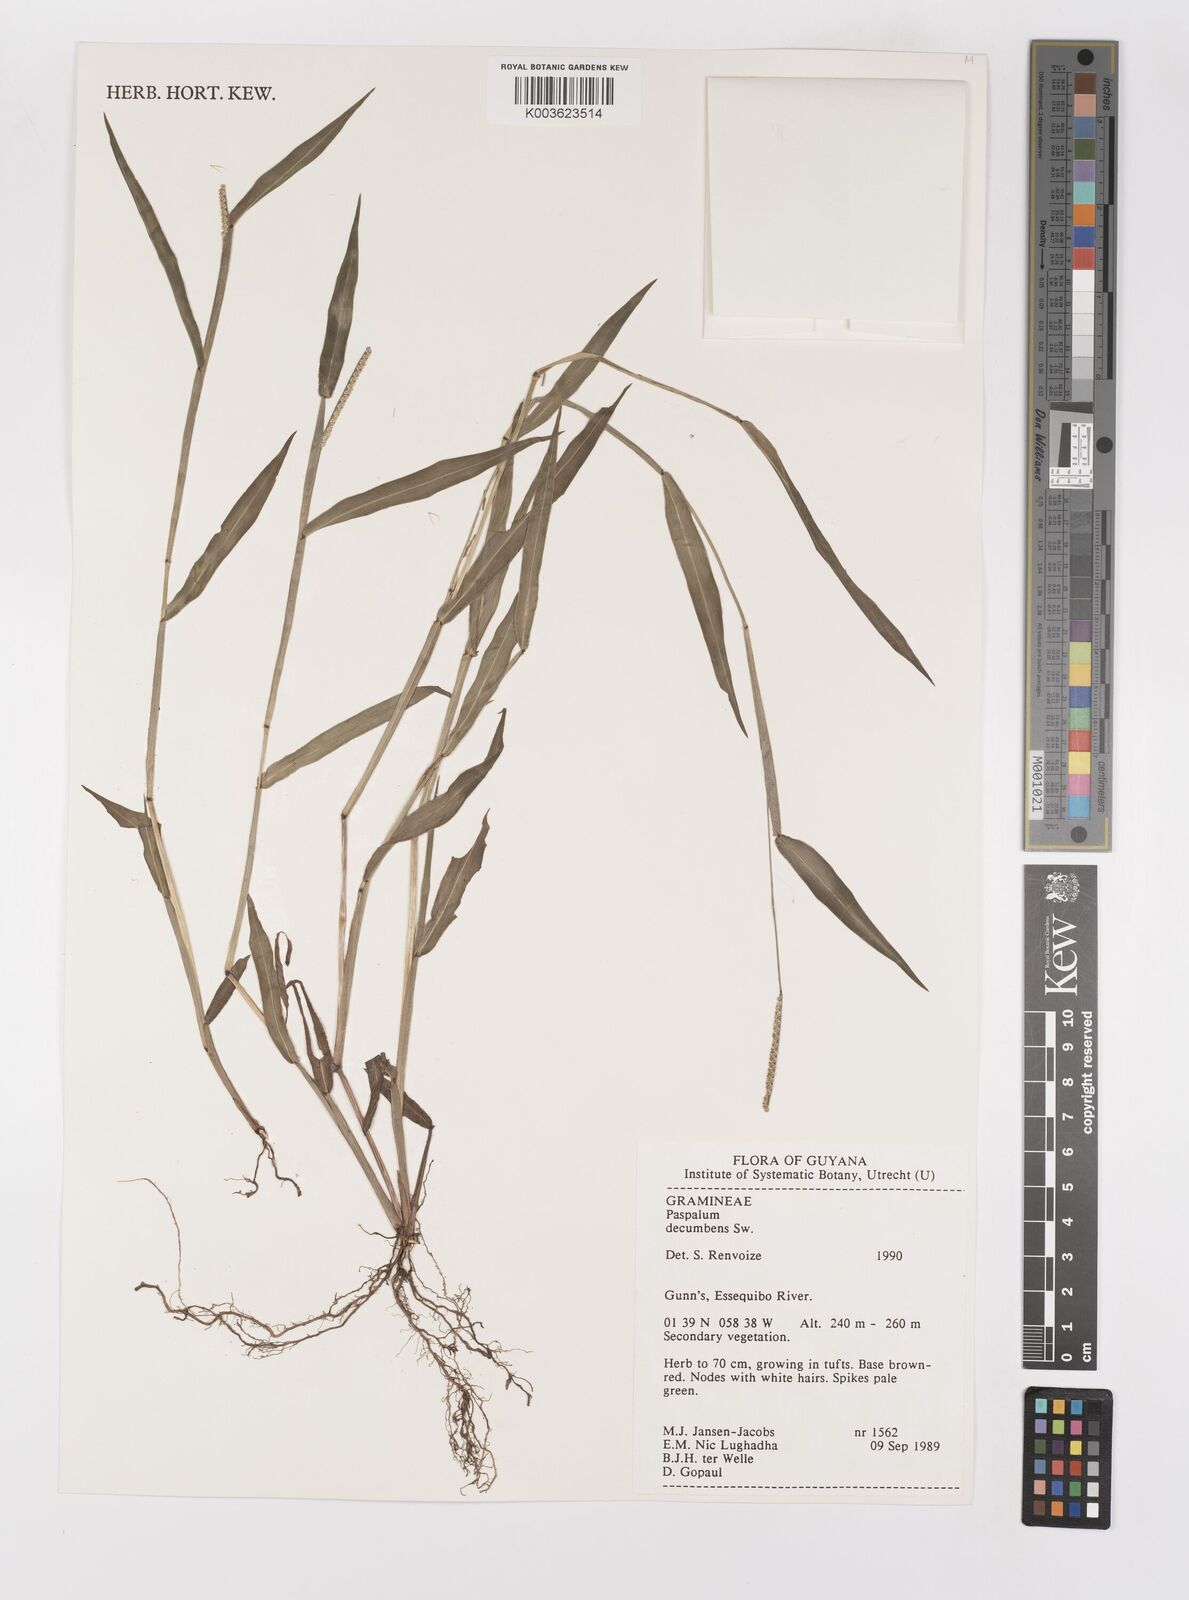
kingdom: Plantae
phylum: Tracheophyta
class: Liliopsida
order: Poales
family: Poaceae
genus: Paspalum
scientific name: Paspalum decumbens
